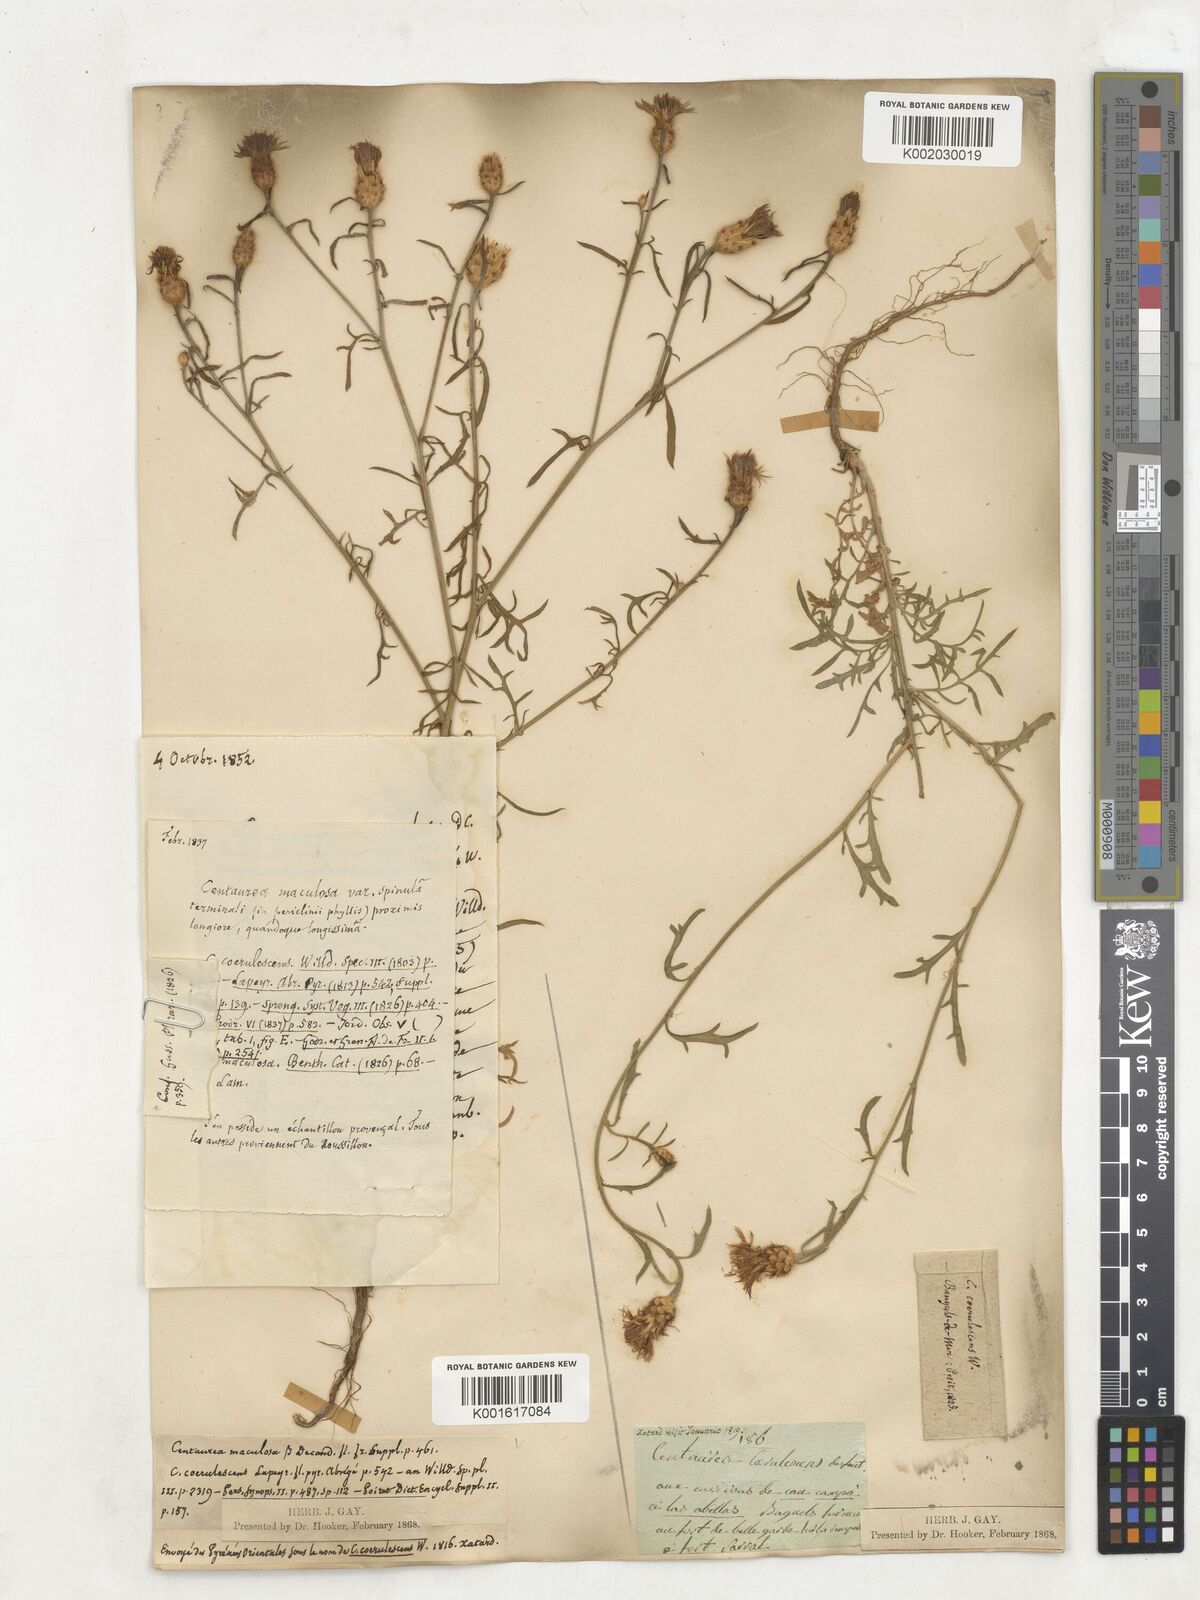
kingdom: Plantae
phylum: Tracheophyta
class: Magnoliopsida
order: Asterales
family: Asteraceae
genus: Centaurea
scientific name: Centaurea ornata
